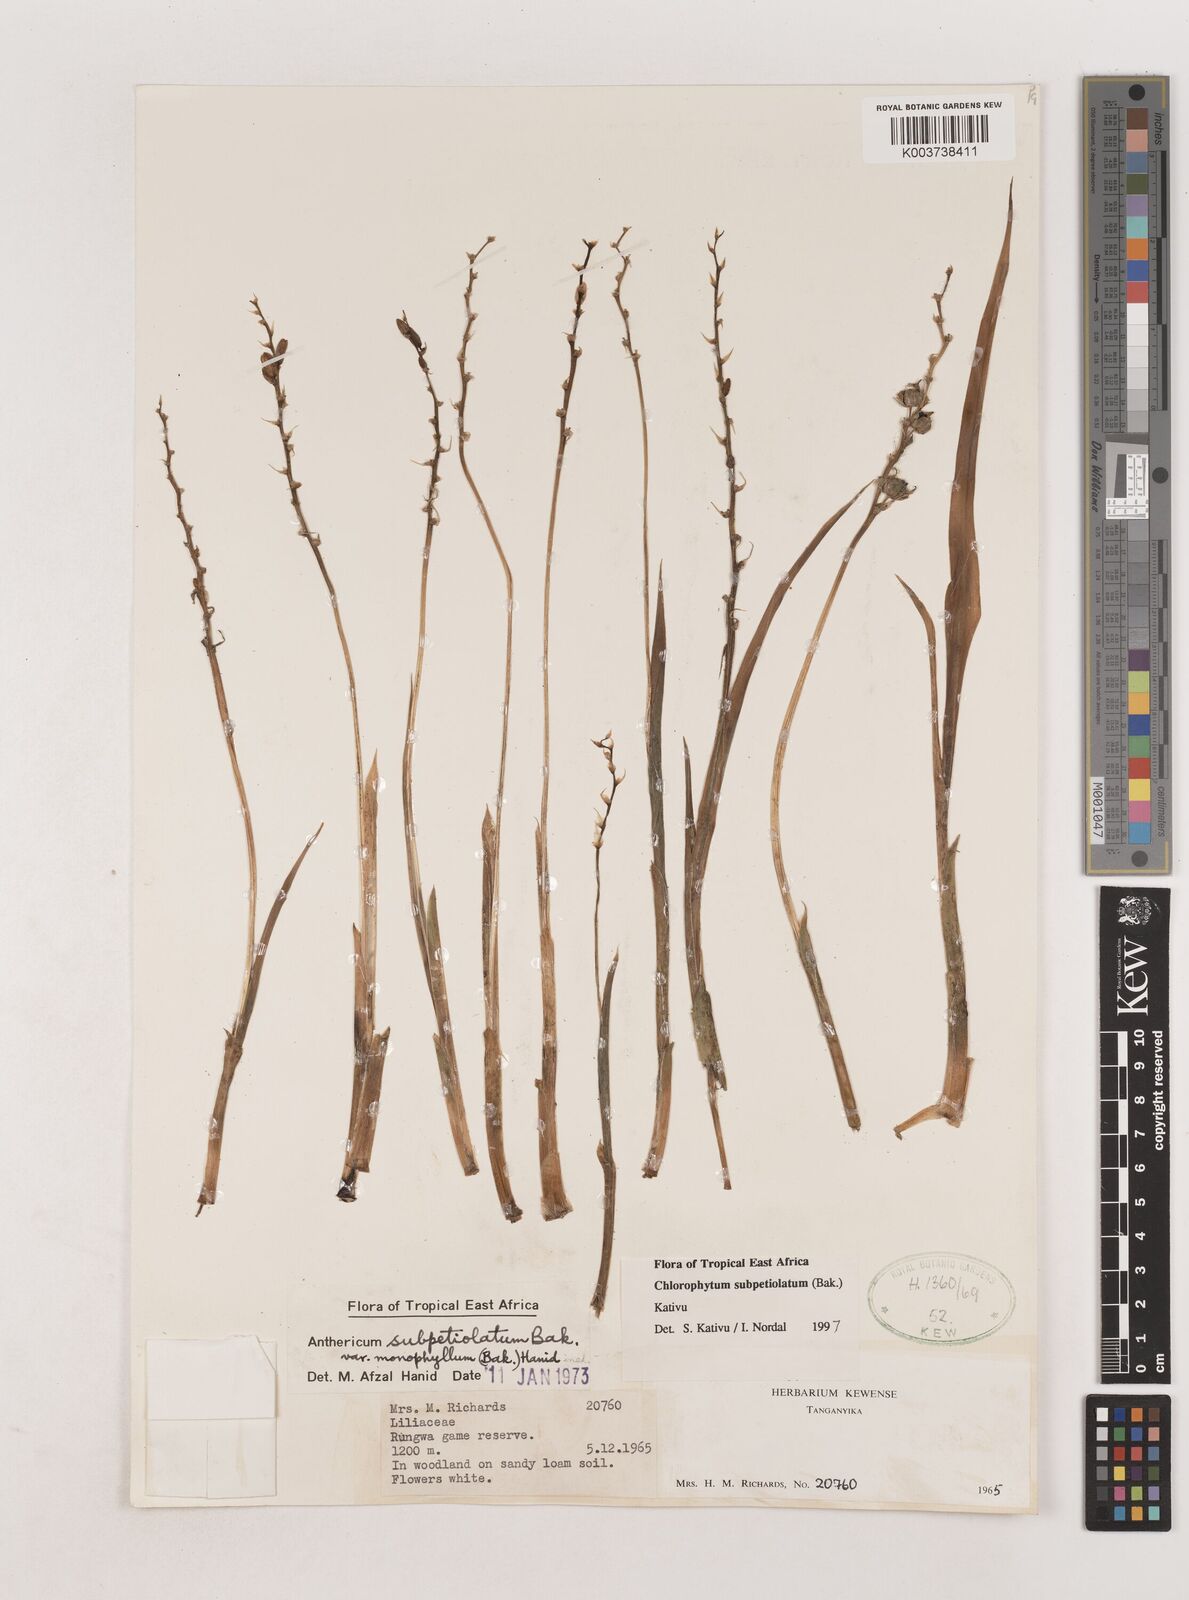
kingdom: Plantae
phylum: Tracheophyta
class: Liliopsida
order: Asparagales
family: Asparagaceae
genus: Chlorophytum
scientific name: Chlorophytum subpetiolatum
